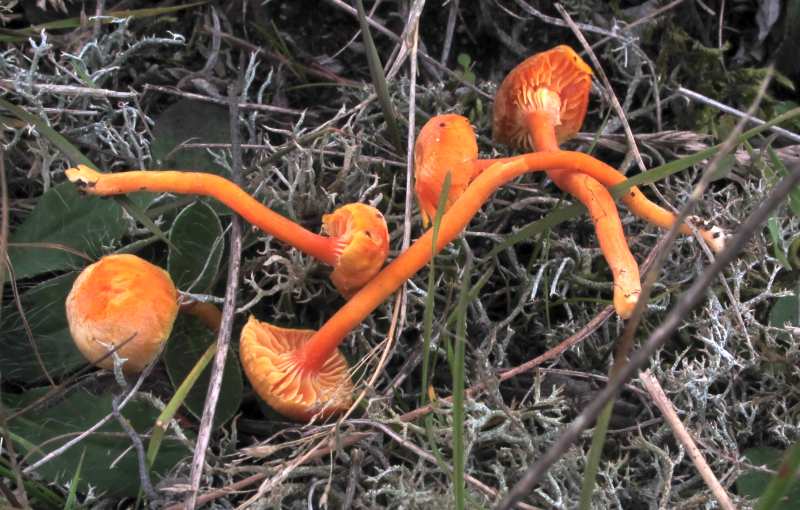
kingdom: Fungi
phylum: Basidiomycota
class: Agaricomycetes
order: Agaricales
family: Hygrophoraceae
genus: Hygrocybe
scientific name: Hygrocybe miniata
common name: mønje-vokshat
